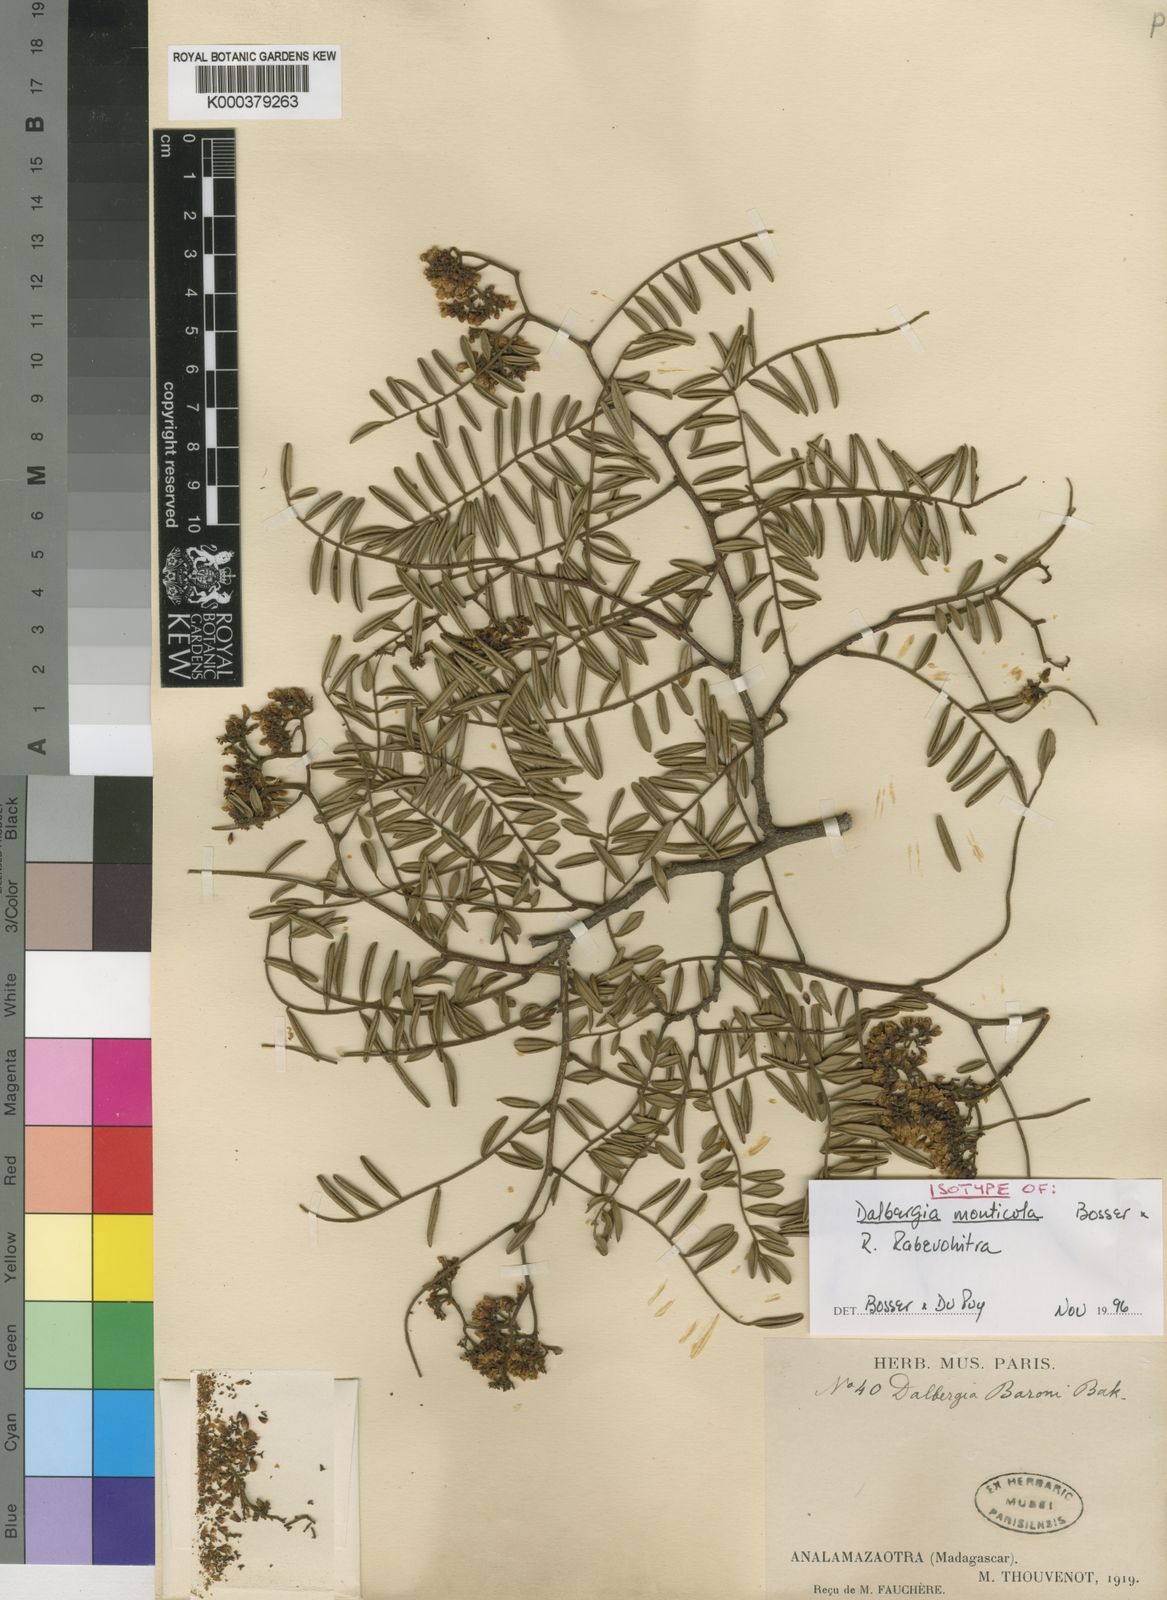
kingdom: Plantae
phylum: Tracheophyta
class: Magnoliopsida
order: Fabales
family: Fabaceae
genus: Dalbergia
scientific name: Dalbergia monticola
